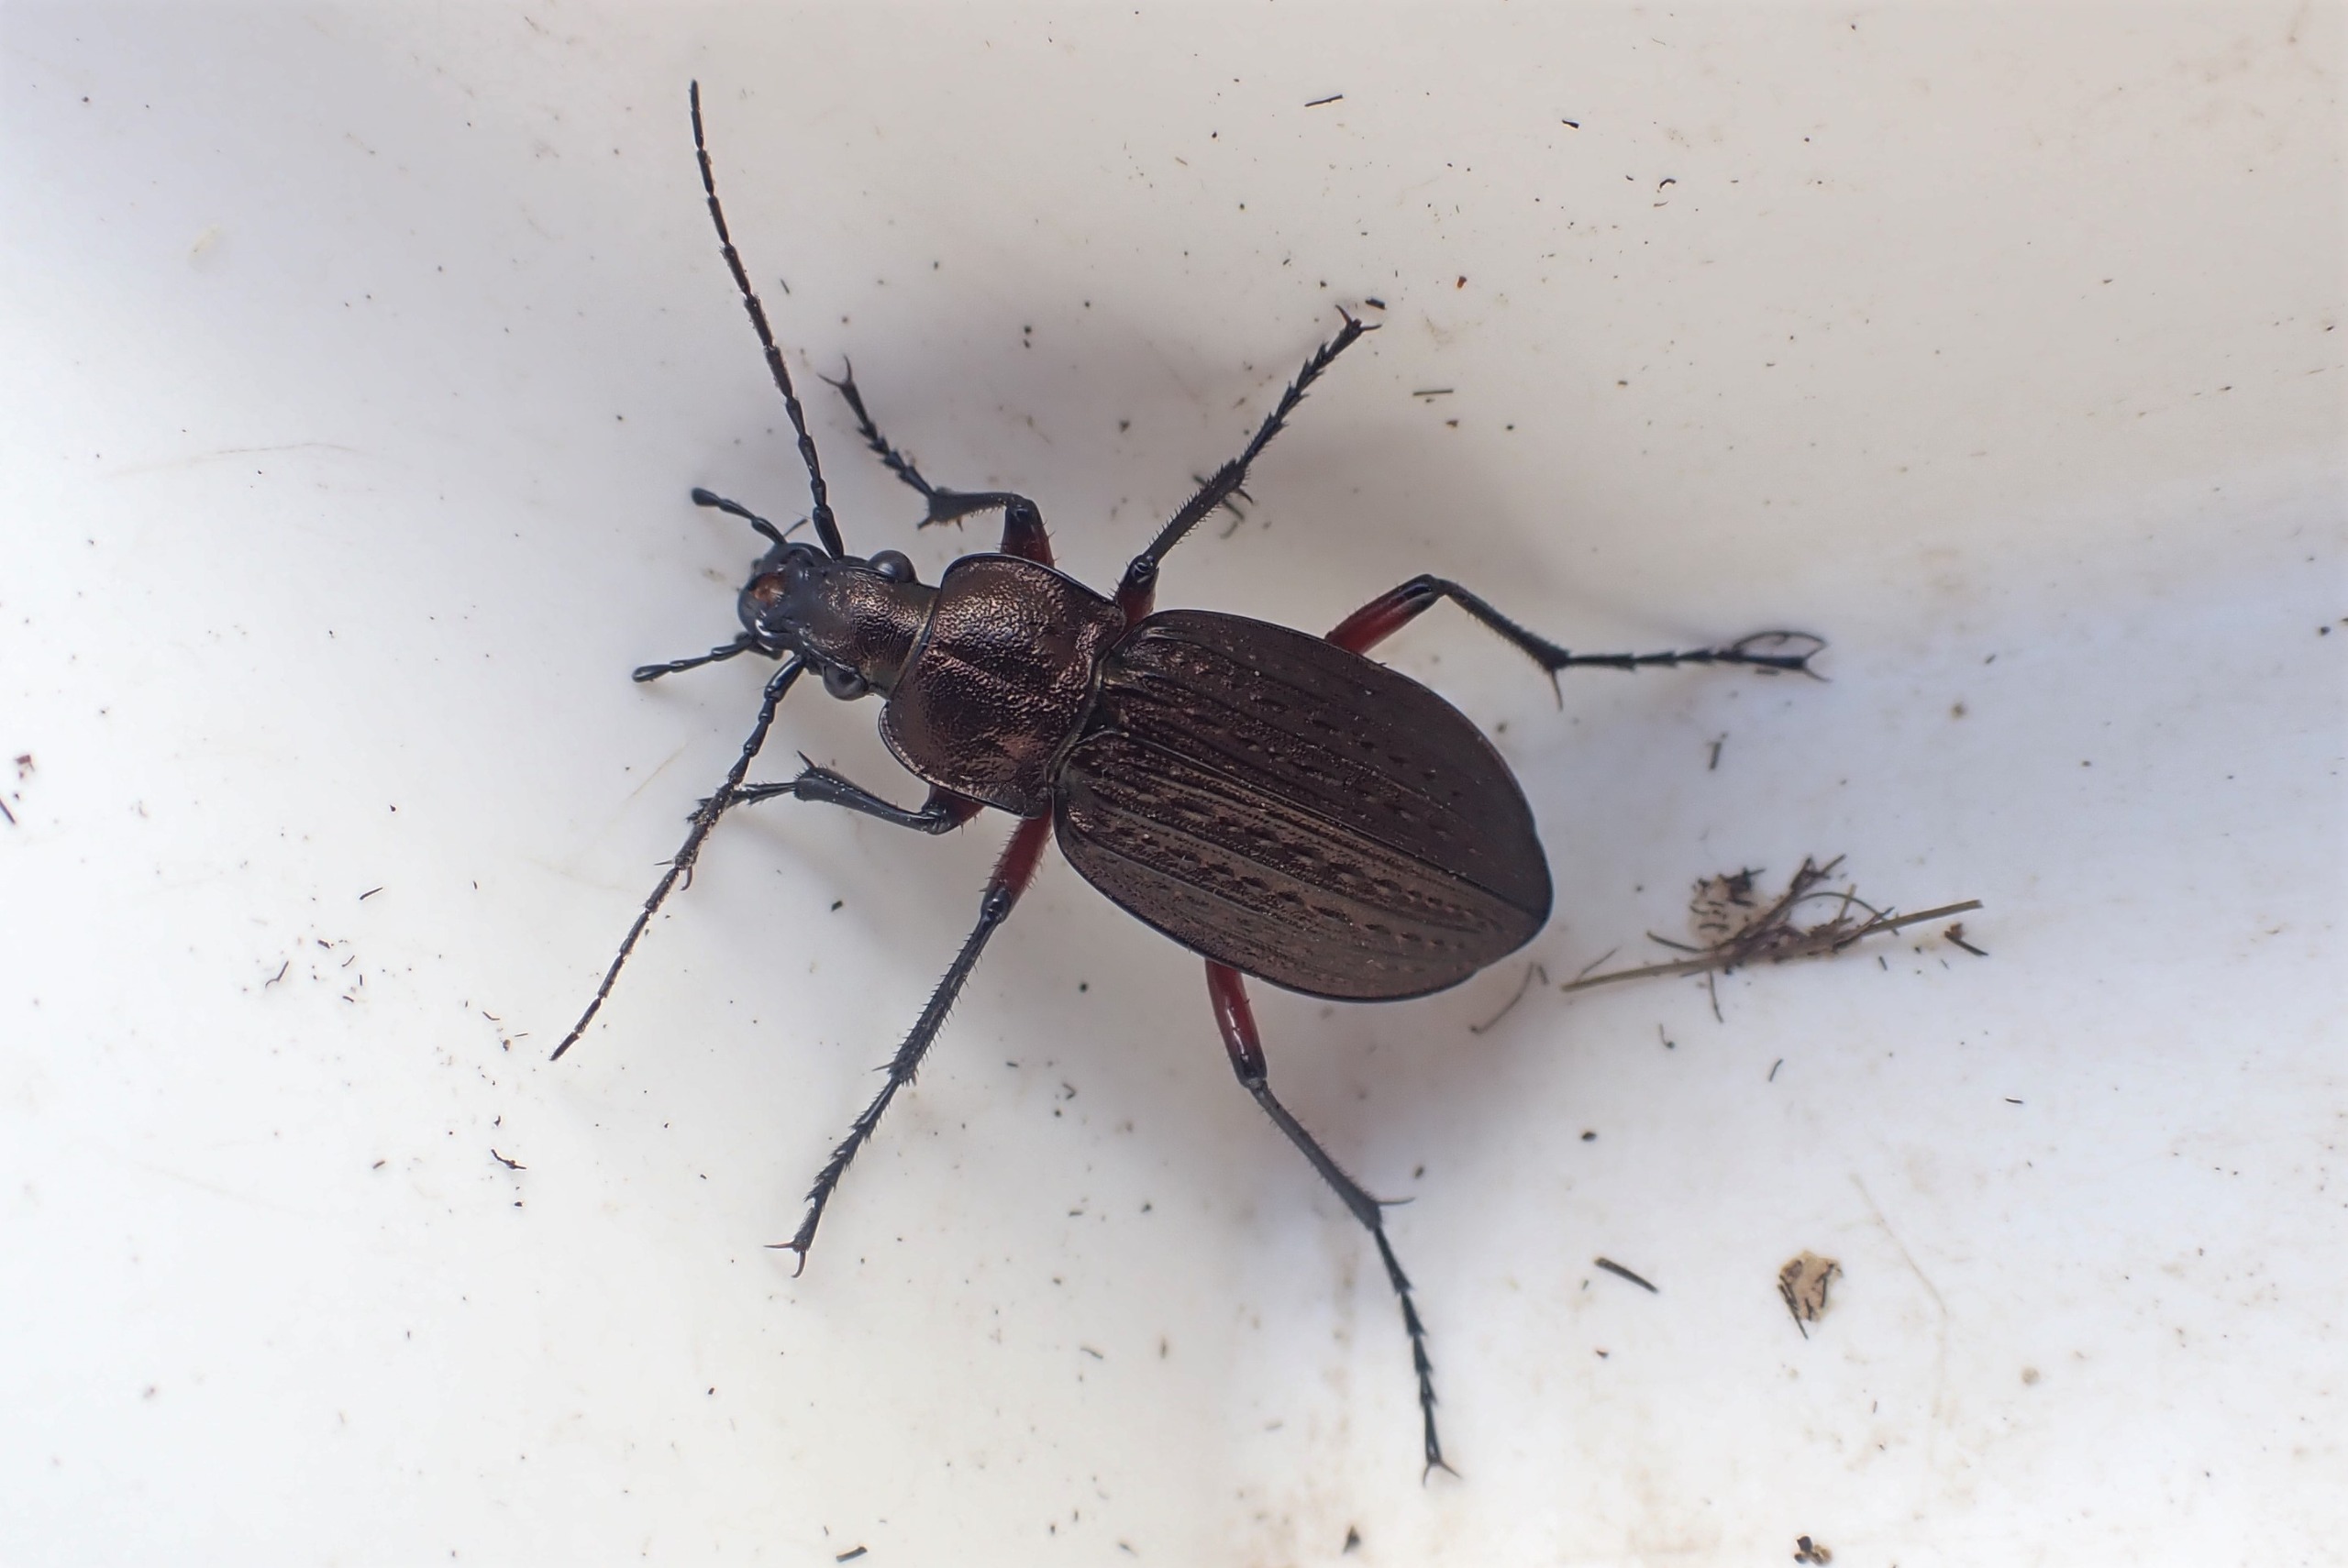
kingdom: Animalia
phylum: Arthropoda
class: Insecta
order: Coleoptera
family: Carabidae
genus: Carabus
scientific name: Carabus granulatus
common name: Kornet løber
